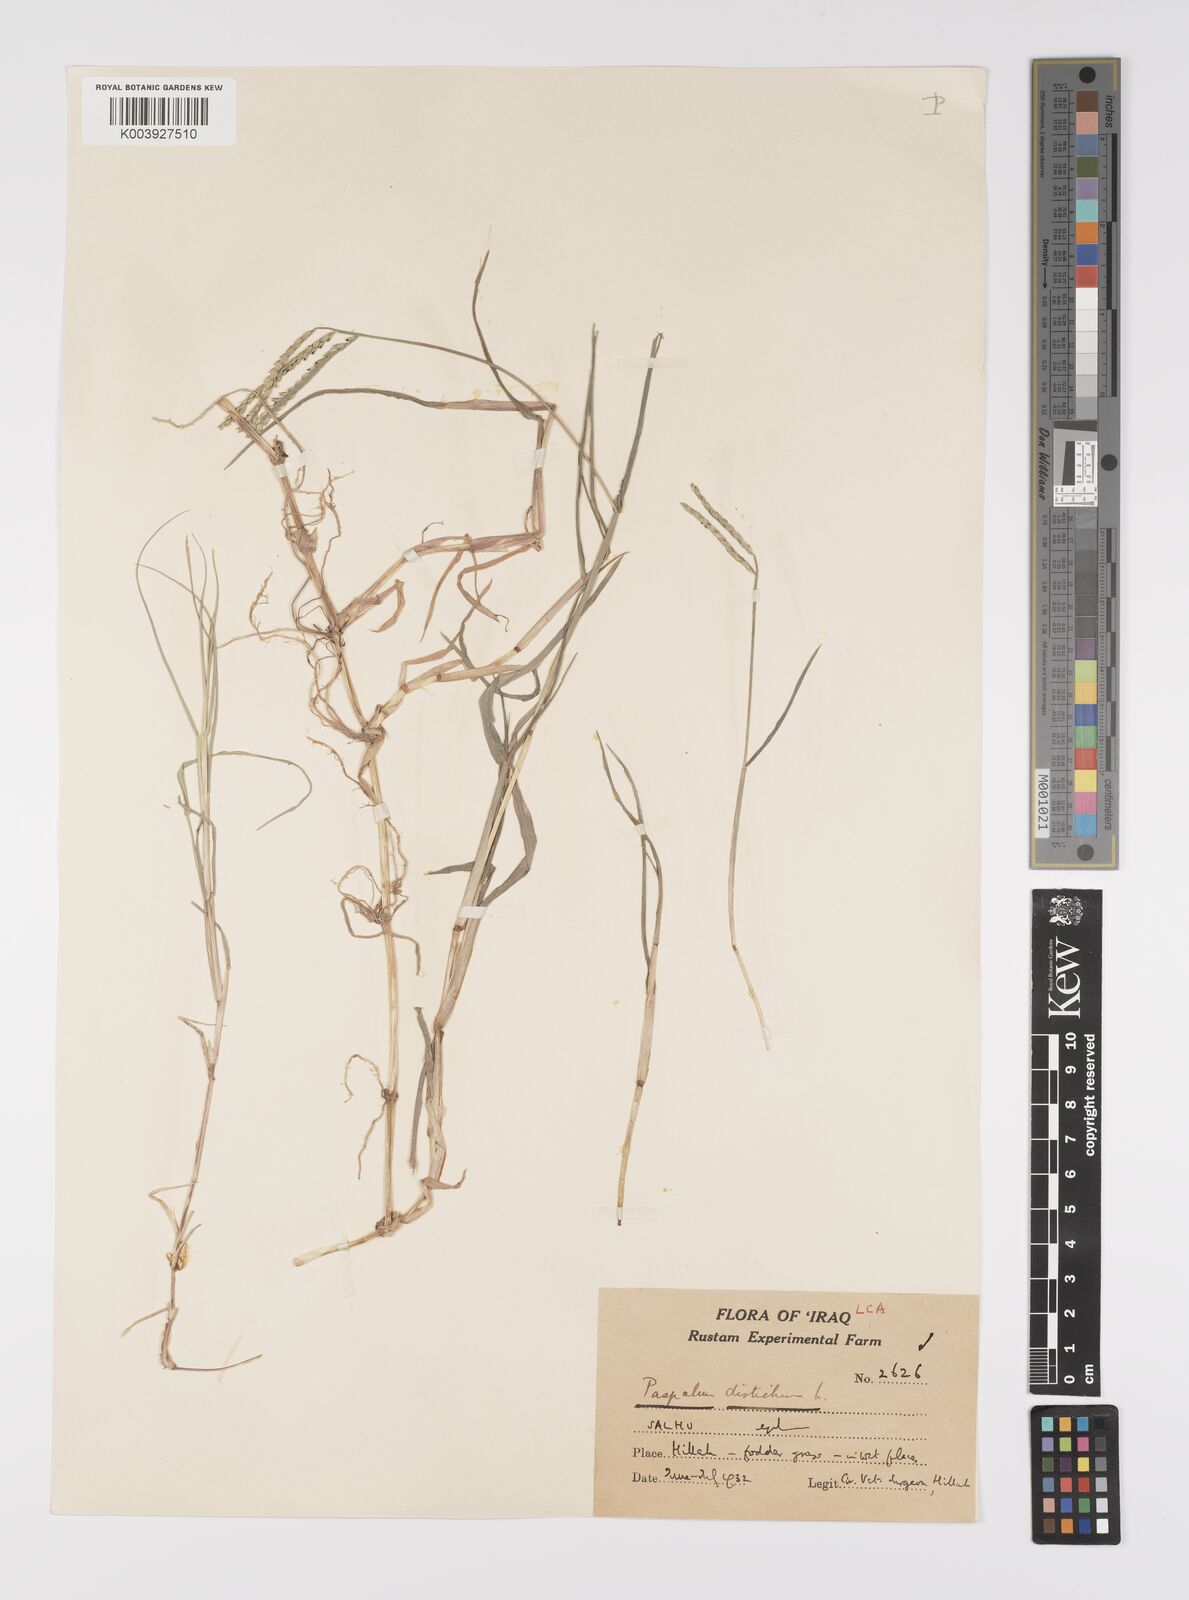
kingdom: Plantae
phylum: Tracheophyta
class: Liliopsida
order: Poales
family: Poaceae
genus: Paspalum
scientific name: Paspalum distichum
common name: Knotgrass
